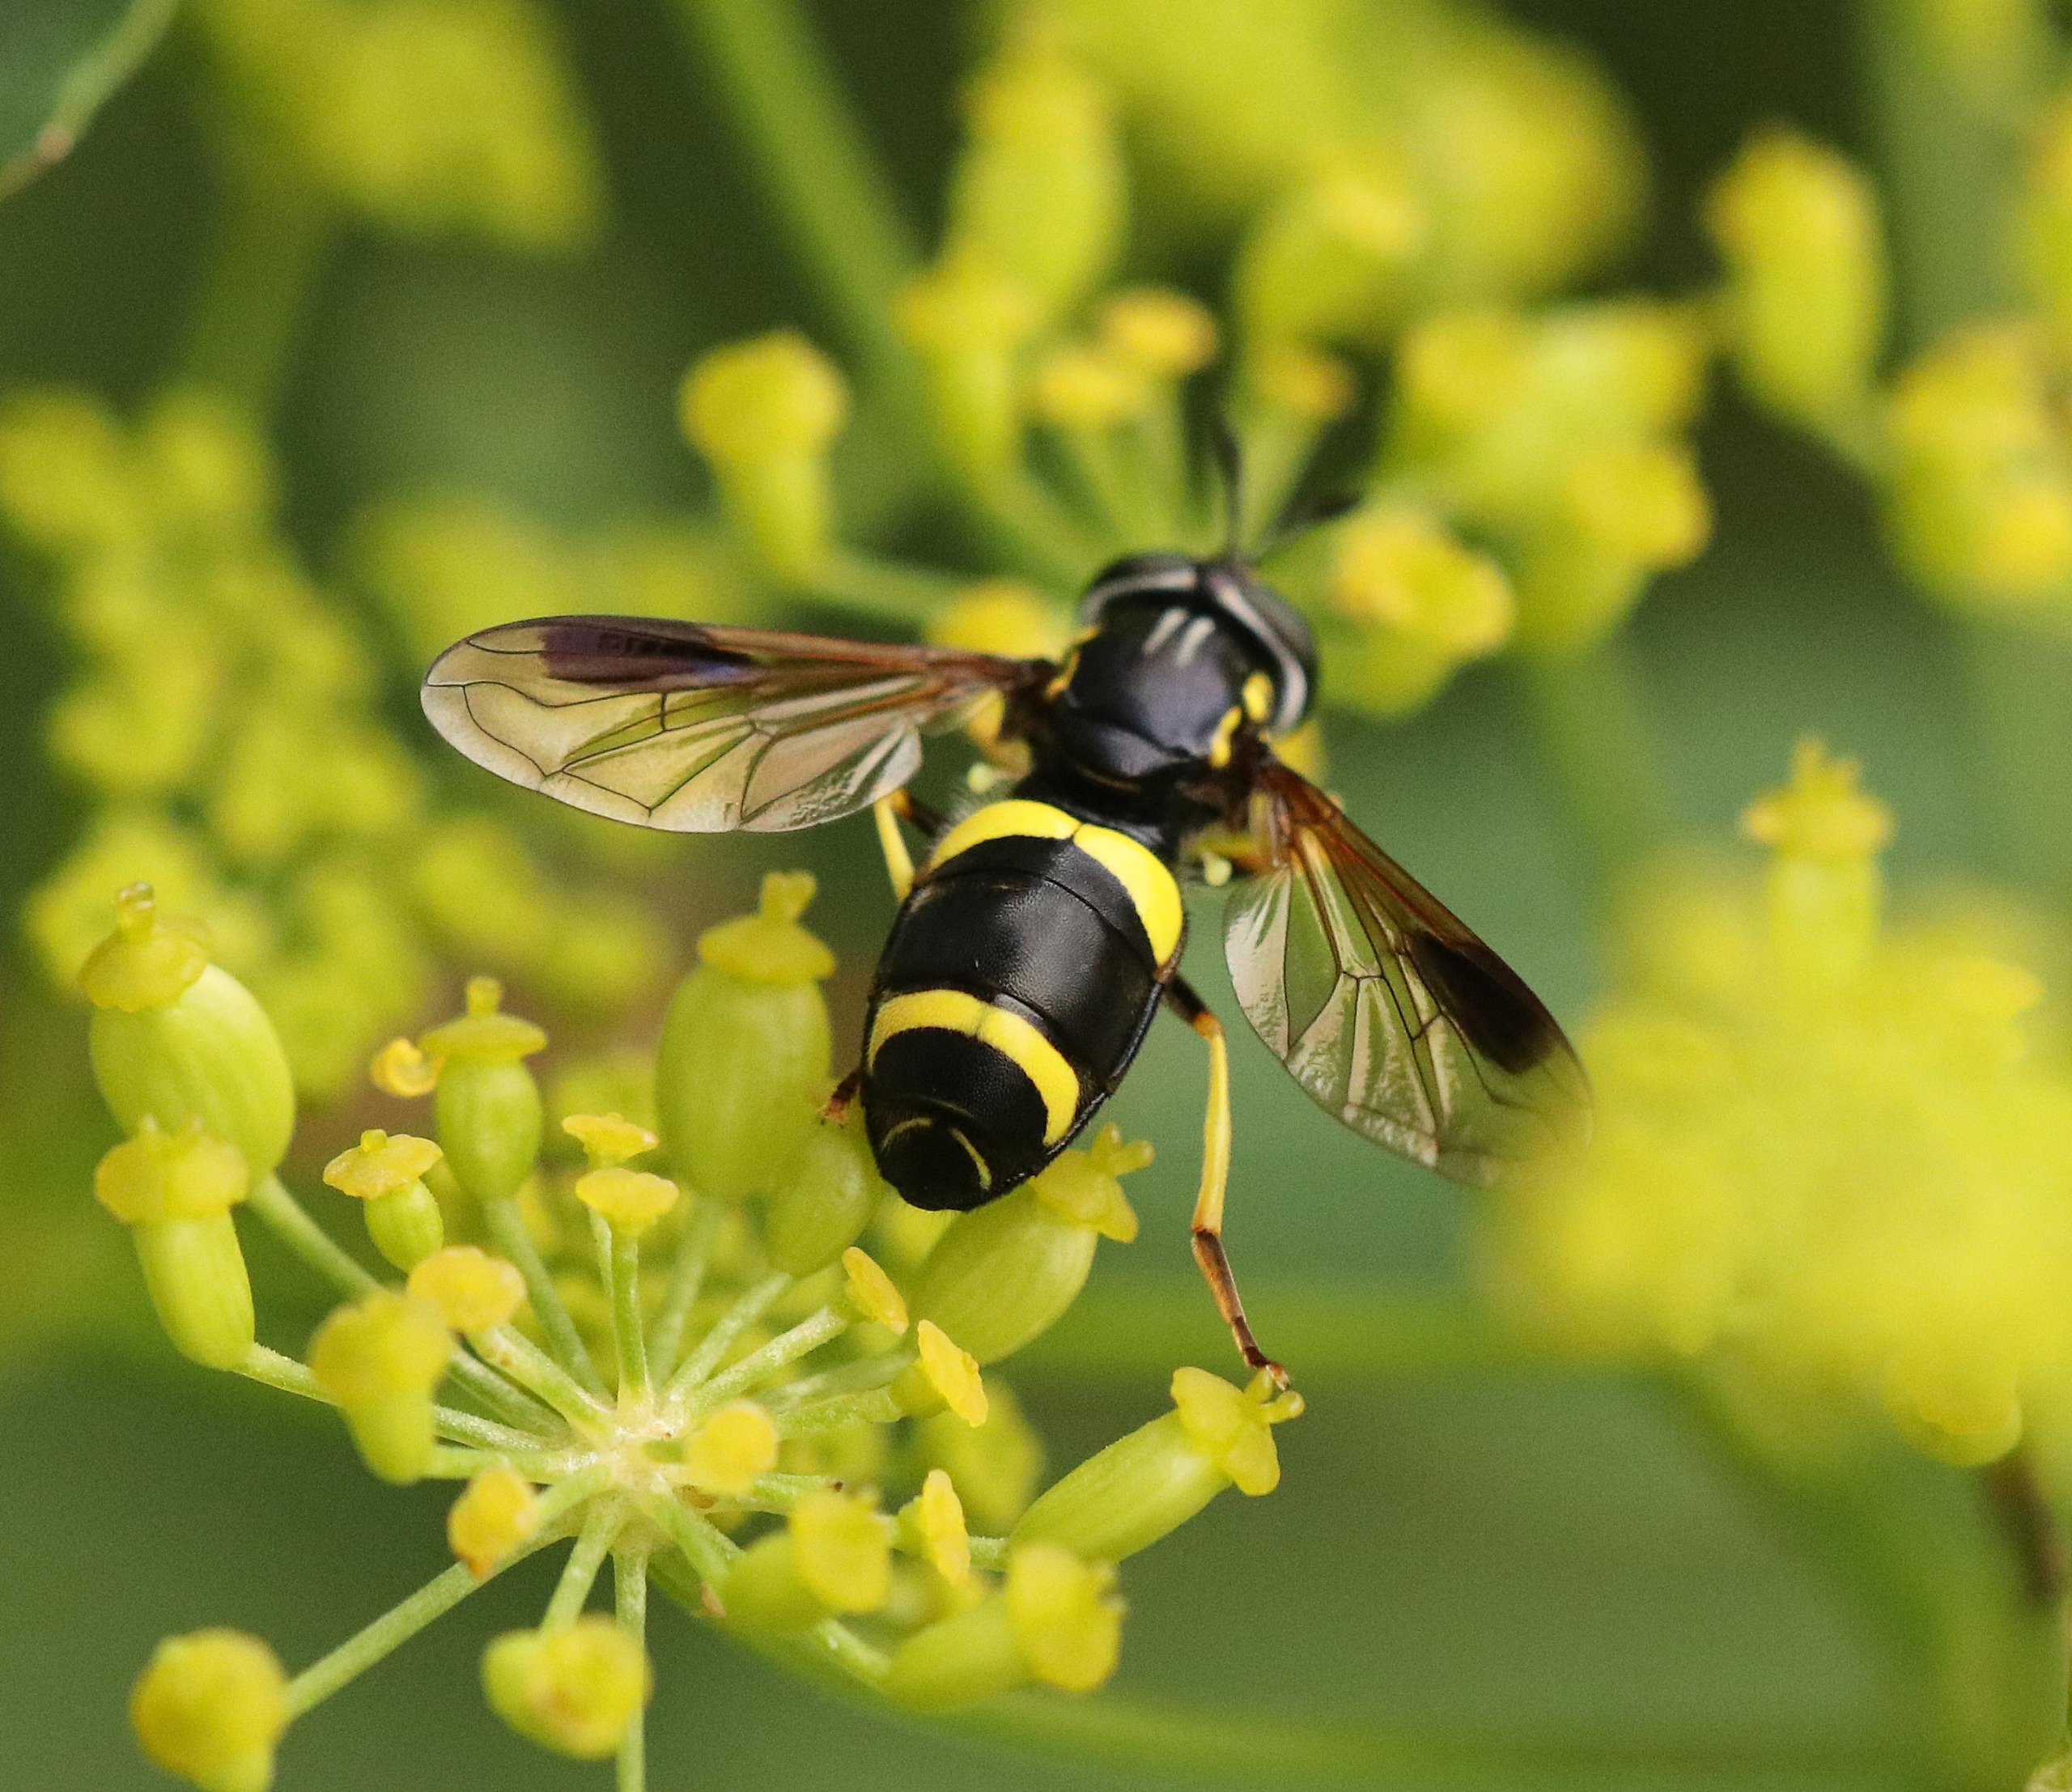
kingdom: Animalia
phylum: Arthropoda
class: Insecta
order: Diptera
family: Syrphidae
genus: Chrysotoxum
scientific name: Chrysotoxum bicincta
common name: Tobåndet hvepsesvirreflue
